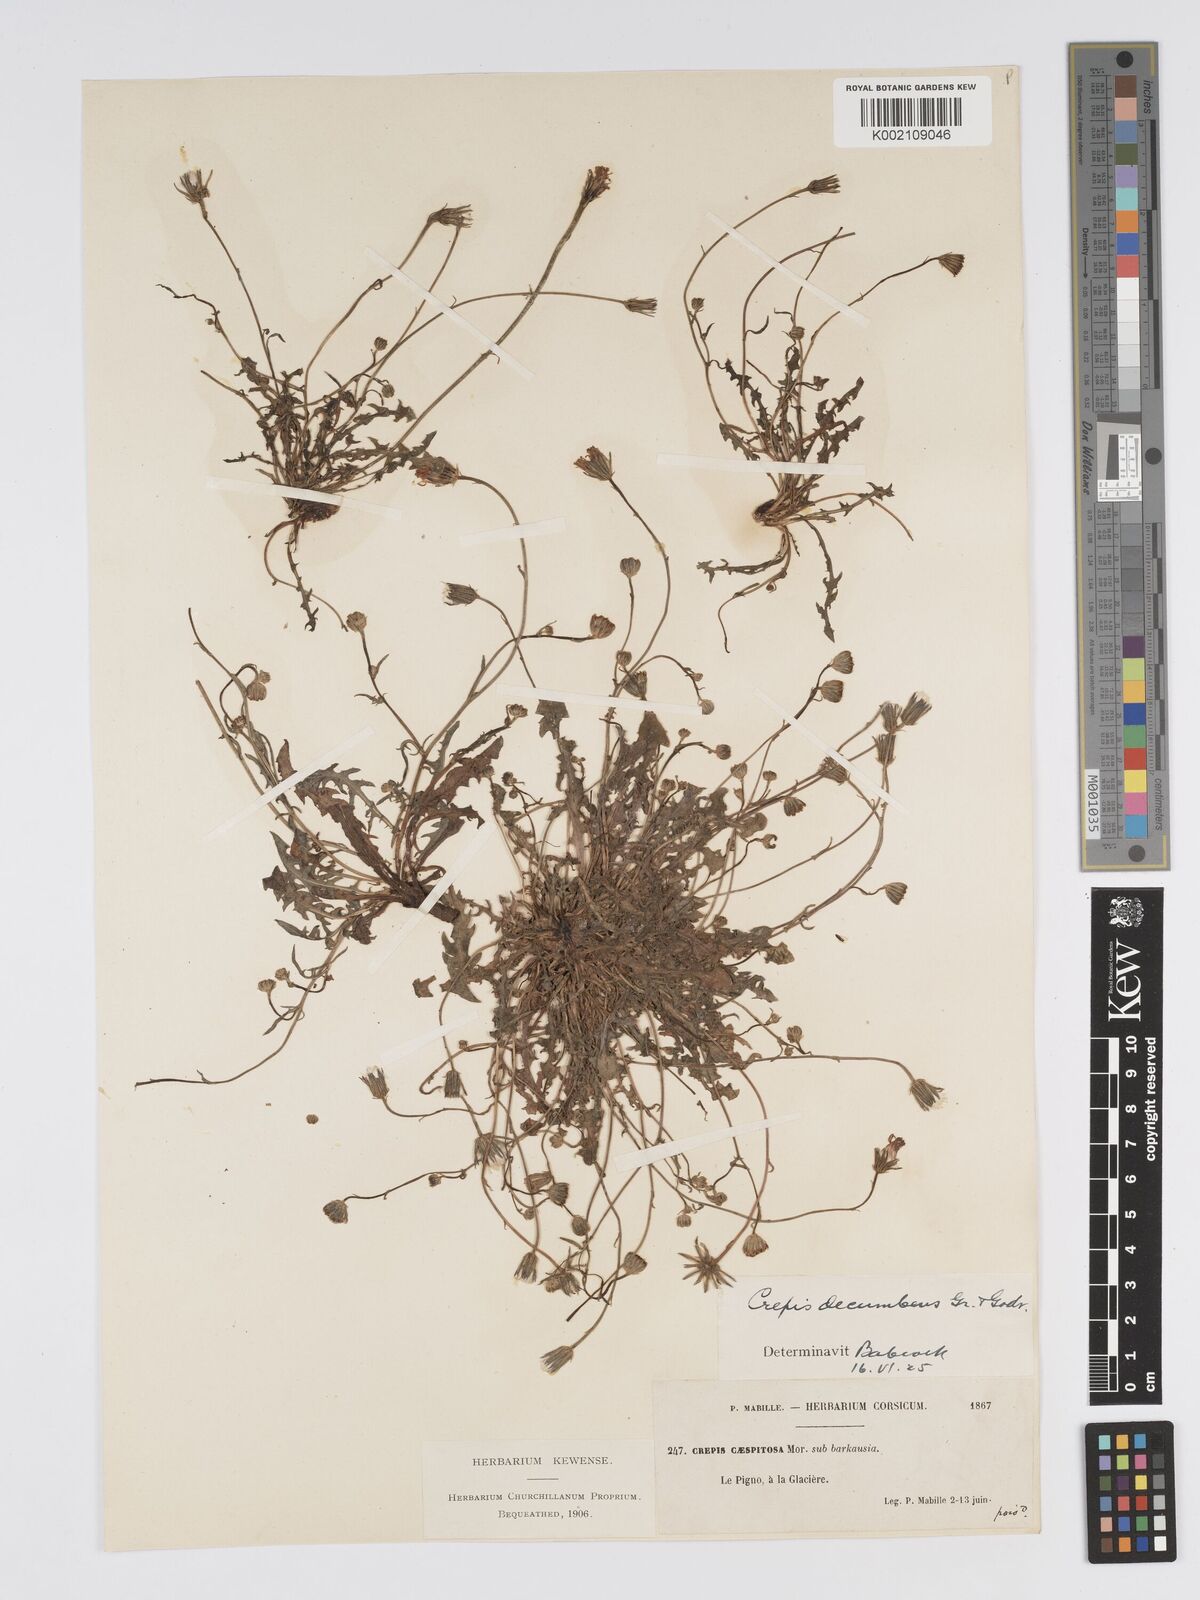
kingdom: Plantae
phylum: Tracheophyta
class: Magnoliopsida
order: Asterales
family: Asteraceae
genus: Crepis
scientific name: Crepis bellidifolia
